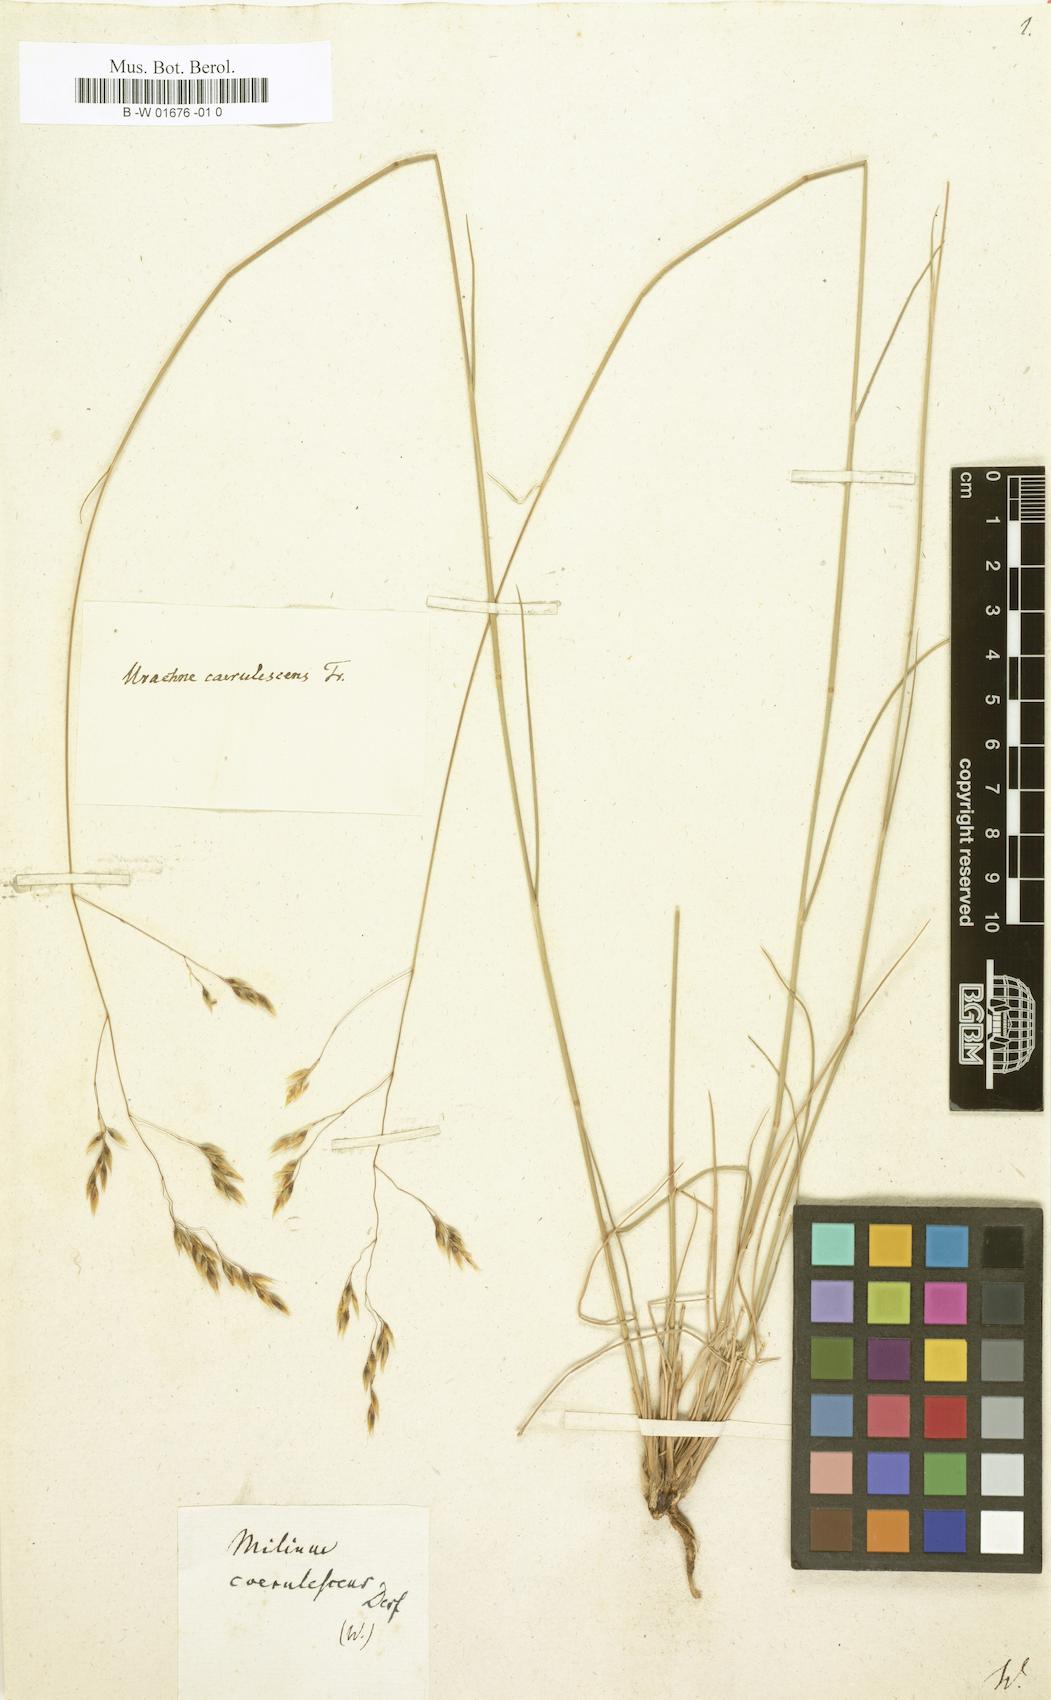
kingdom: Plantae
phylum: Tracheophyta
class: Liliopsida
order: Poales
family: Poaceae
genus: Piptatherum
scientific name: Piptatherum coerulescens
